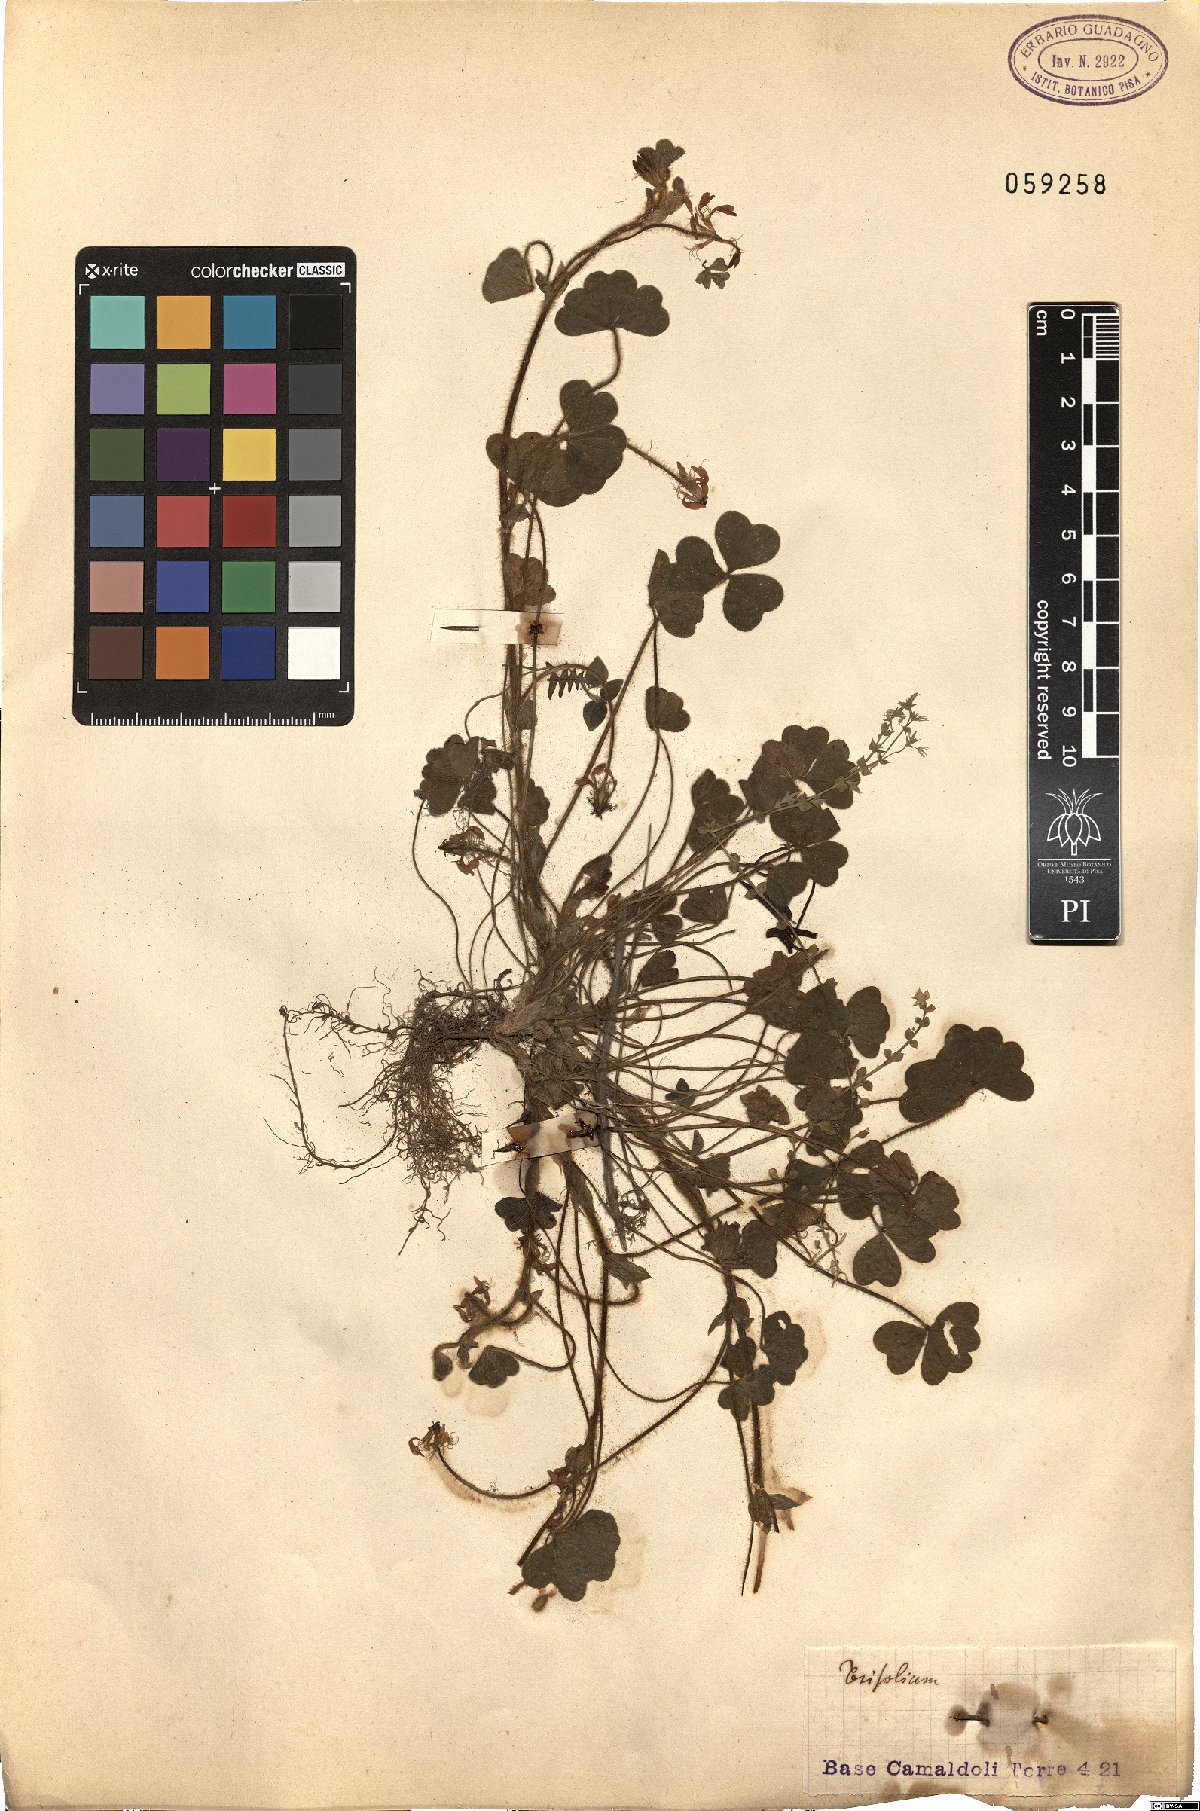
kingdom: Plantae
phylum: Tracheophyta
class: Magnoliopsida
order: Fabales
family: Fabaceae
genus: Trifolium
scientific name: Trifolium
